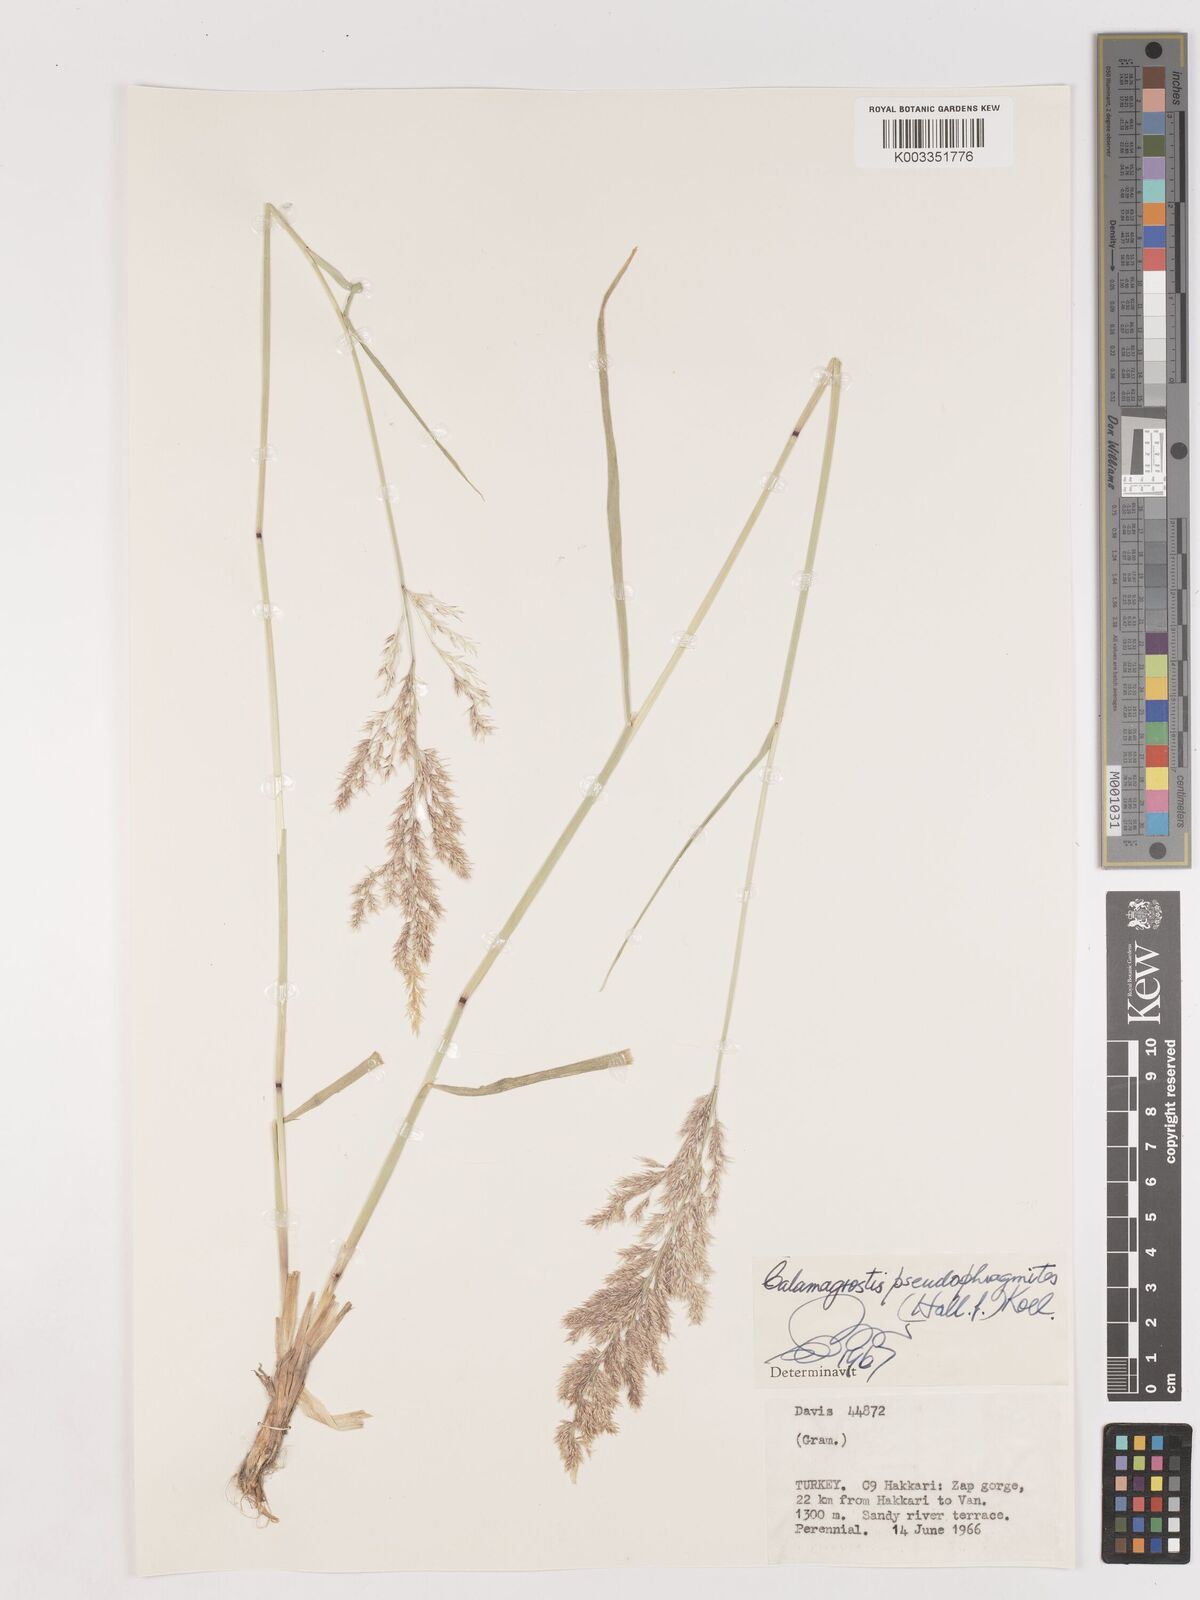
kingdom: Plantae
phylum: Tracheophyta
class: Liliopsida
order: Poales
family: Poaceae
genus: Calamagrostis
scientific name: Calamagrostis pseudophragmites
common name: Coastal small-reed
